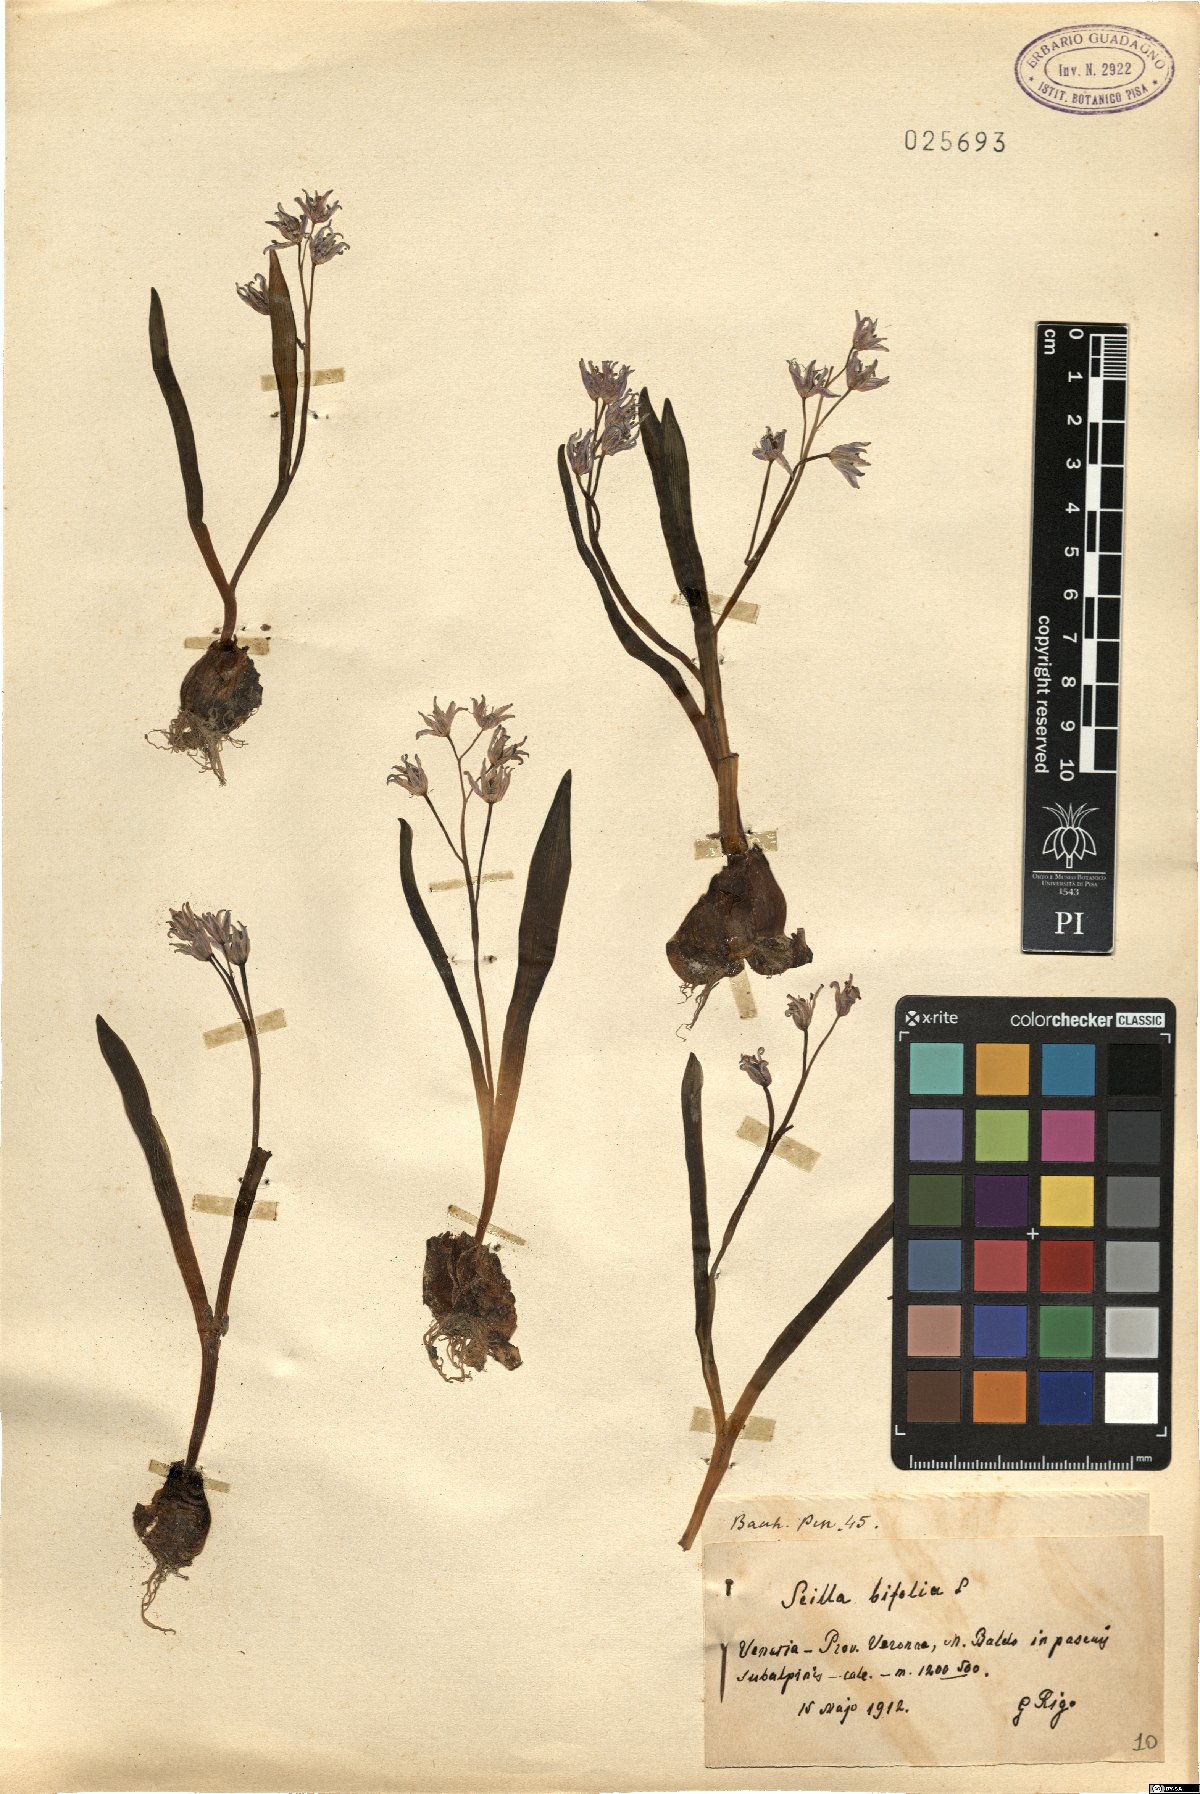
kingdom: Plantae
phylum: Tracheophyta
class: Liliopsida
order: Asparagales
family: Asparagaceae
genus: Scilla
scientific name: Scilla bifolia
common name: Alpine squill
